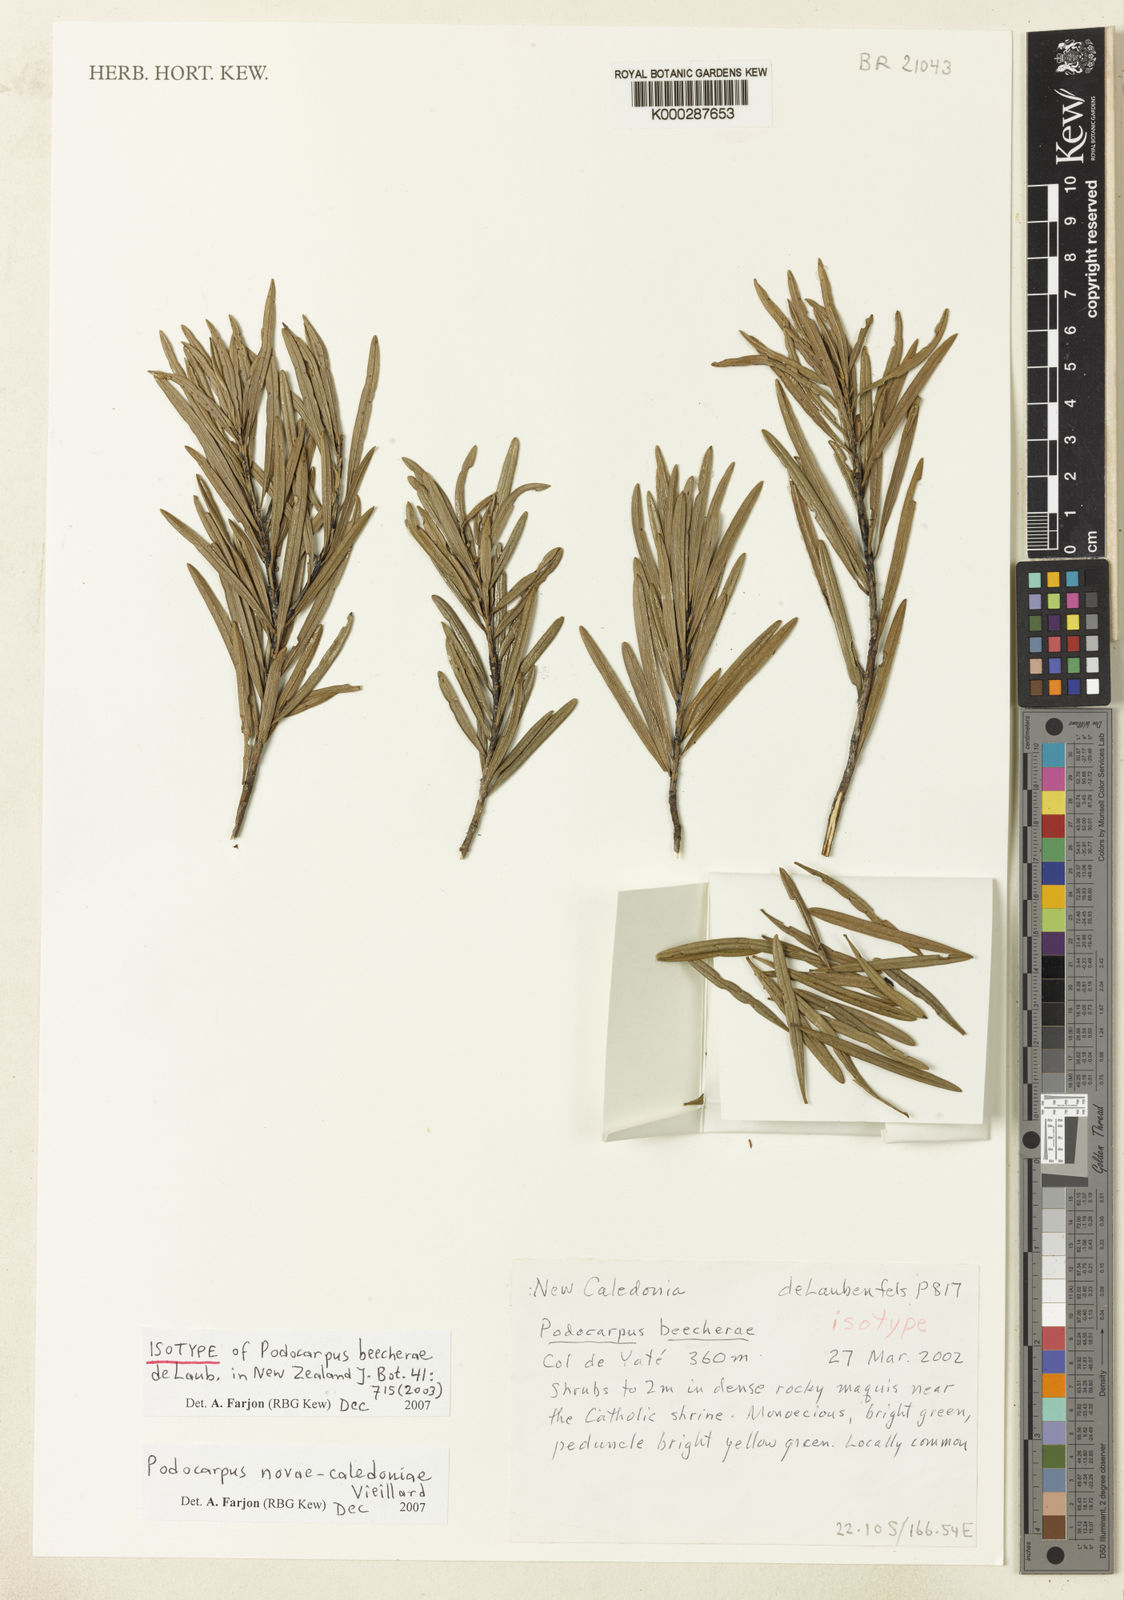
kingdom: Plantae
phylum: Tracheophyta
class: Pinopsida
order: Pinales
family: Podocarpaceae
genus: Podocarpus
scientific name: Podocarpus
